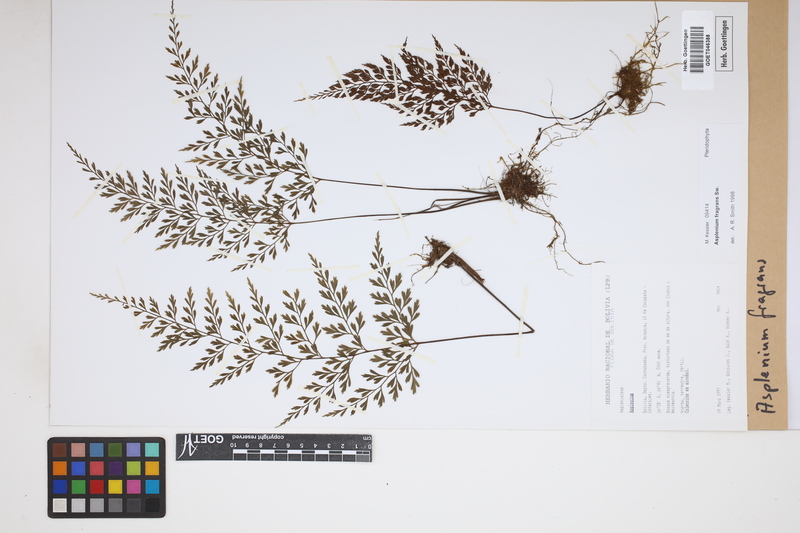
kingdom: Plantae
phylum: Tracheophyta
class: Polypodiopsida
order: Polypodiales
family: Aspleniaceae
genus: Asplenium
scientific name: Asplenium fragrans
